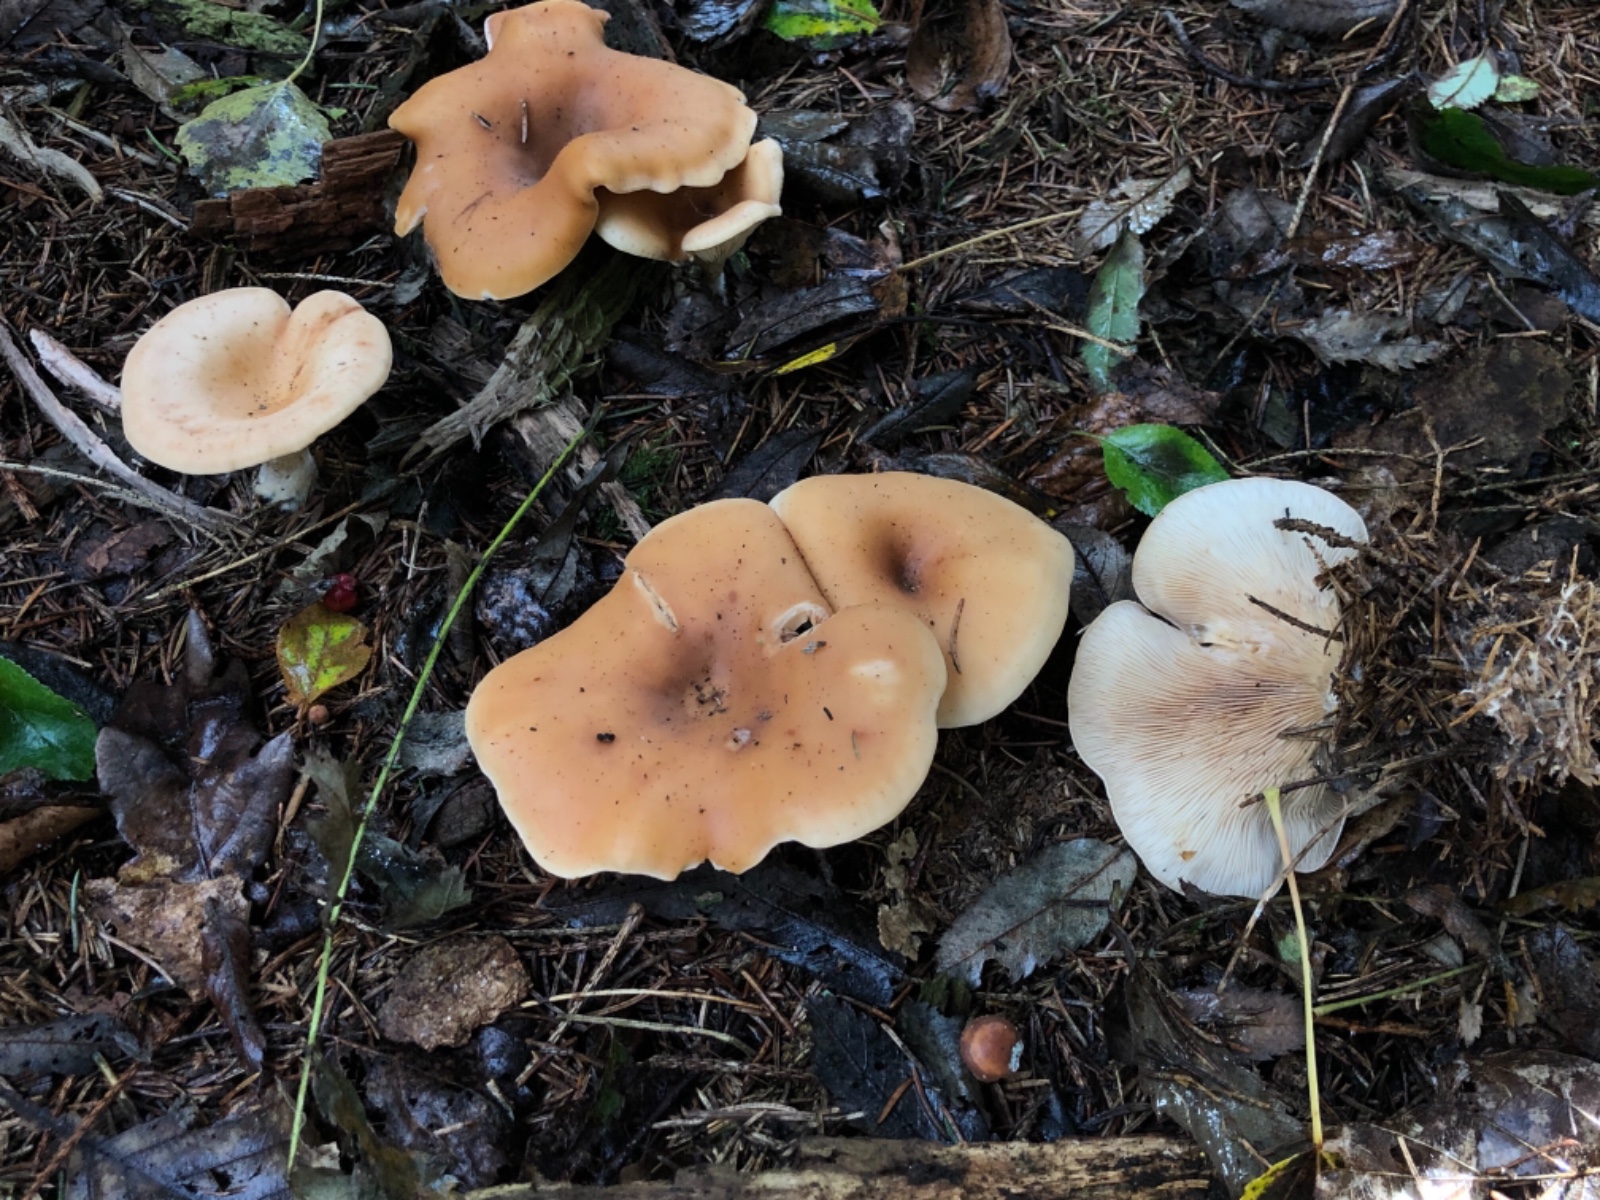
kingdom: Fungi
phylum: Basidiomycota
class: Agaricomycetes
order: Agaricales
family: Tricholomataceae
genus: Paralepista
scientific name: Paralepista flaccida
